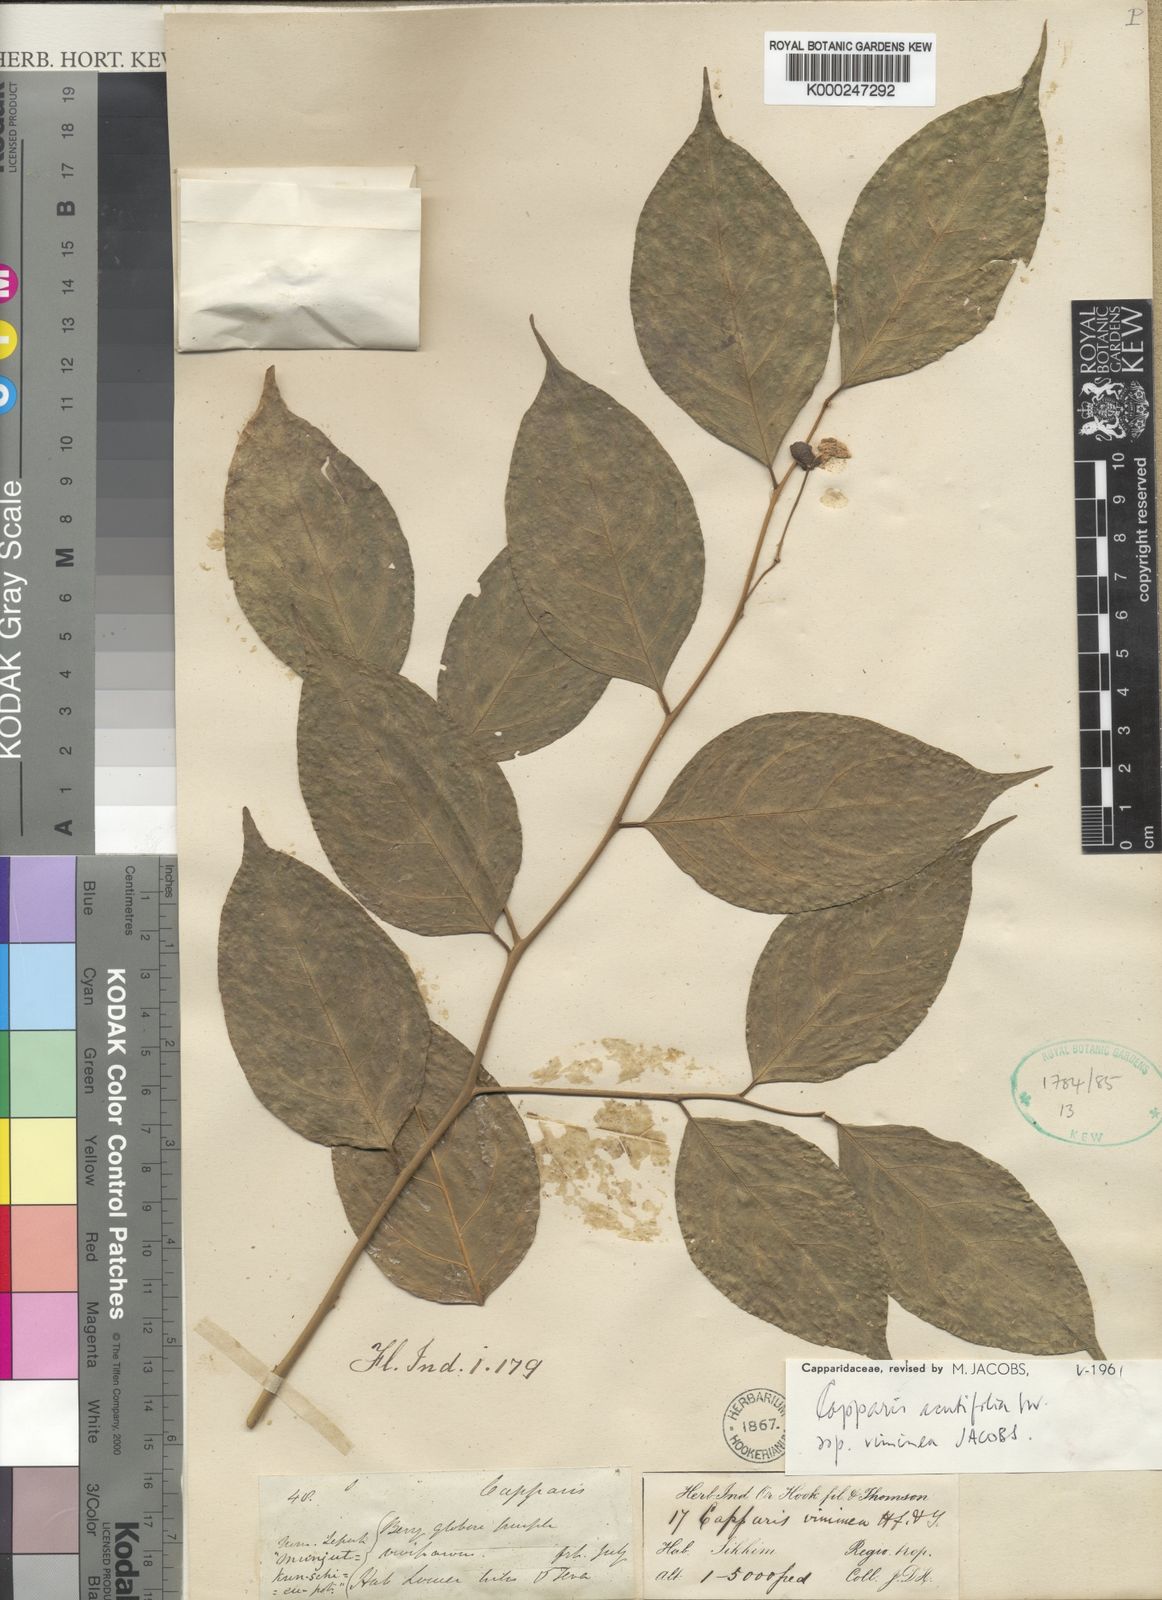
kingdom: Plantae
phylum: Tracheophyta
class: Magnoliopsida
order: Brassicales
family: Capparaceae
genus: Capparis
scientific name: Capparis acutifolia
